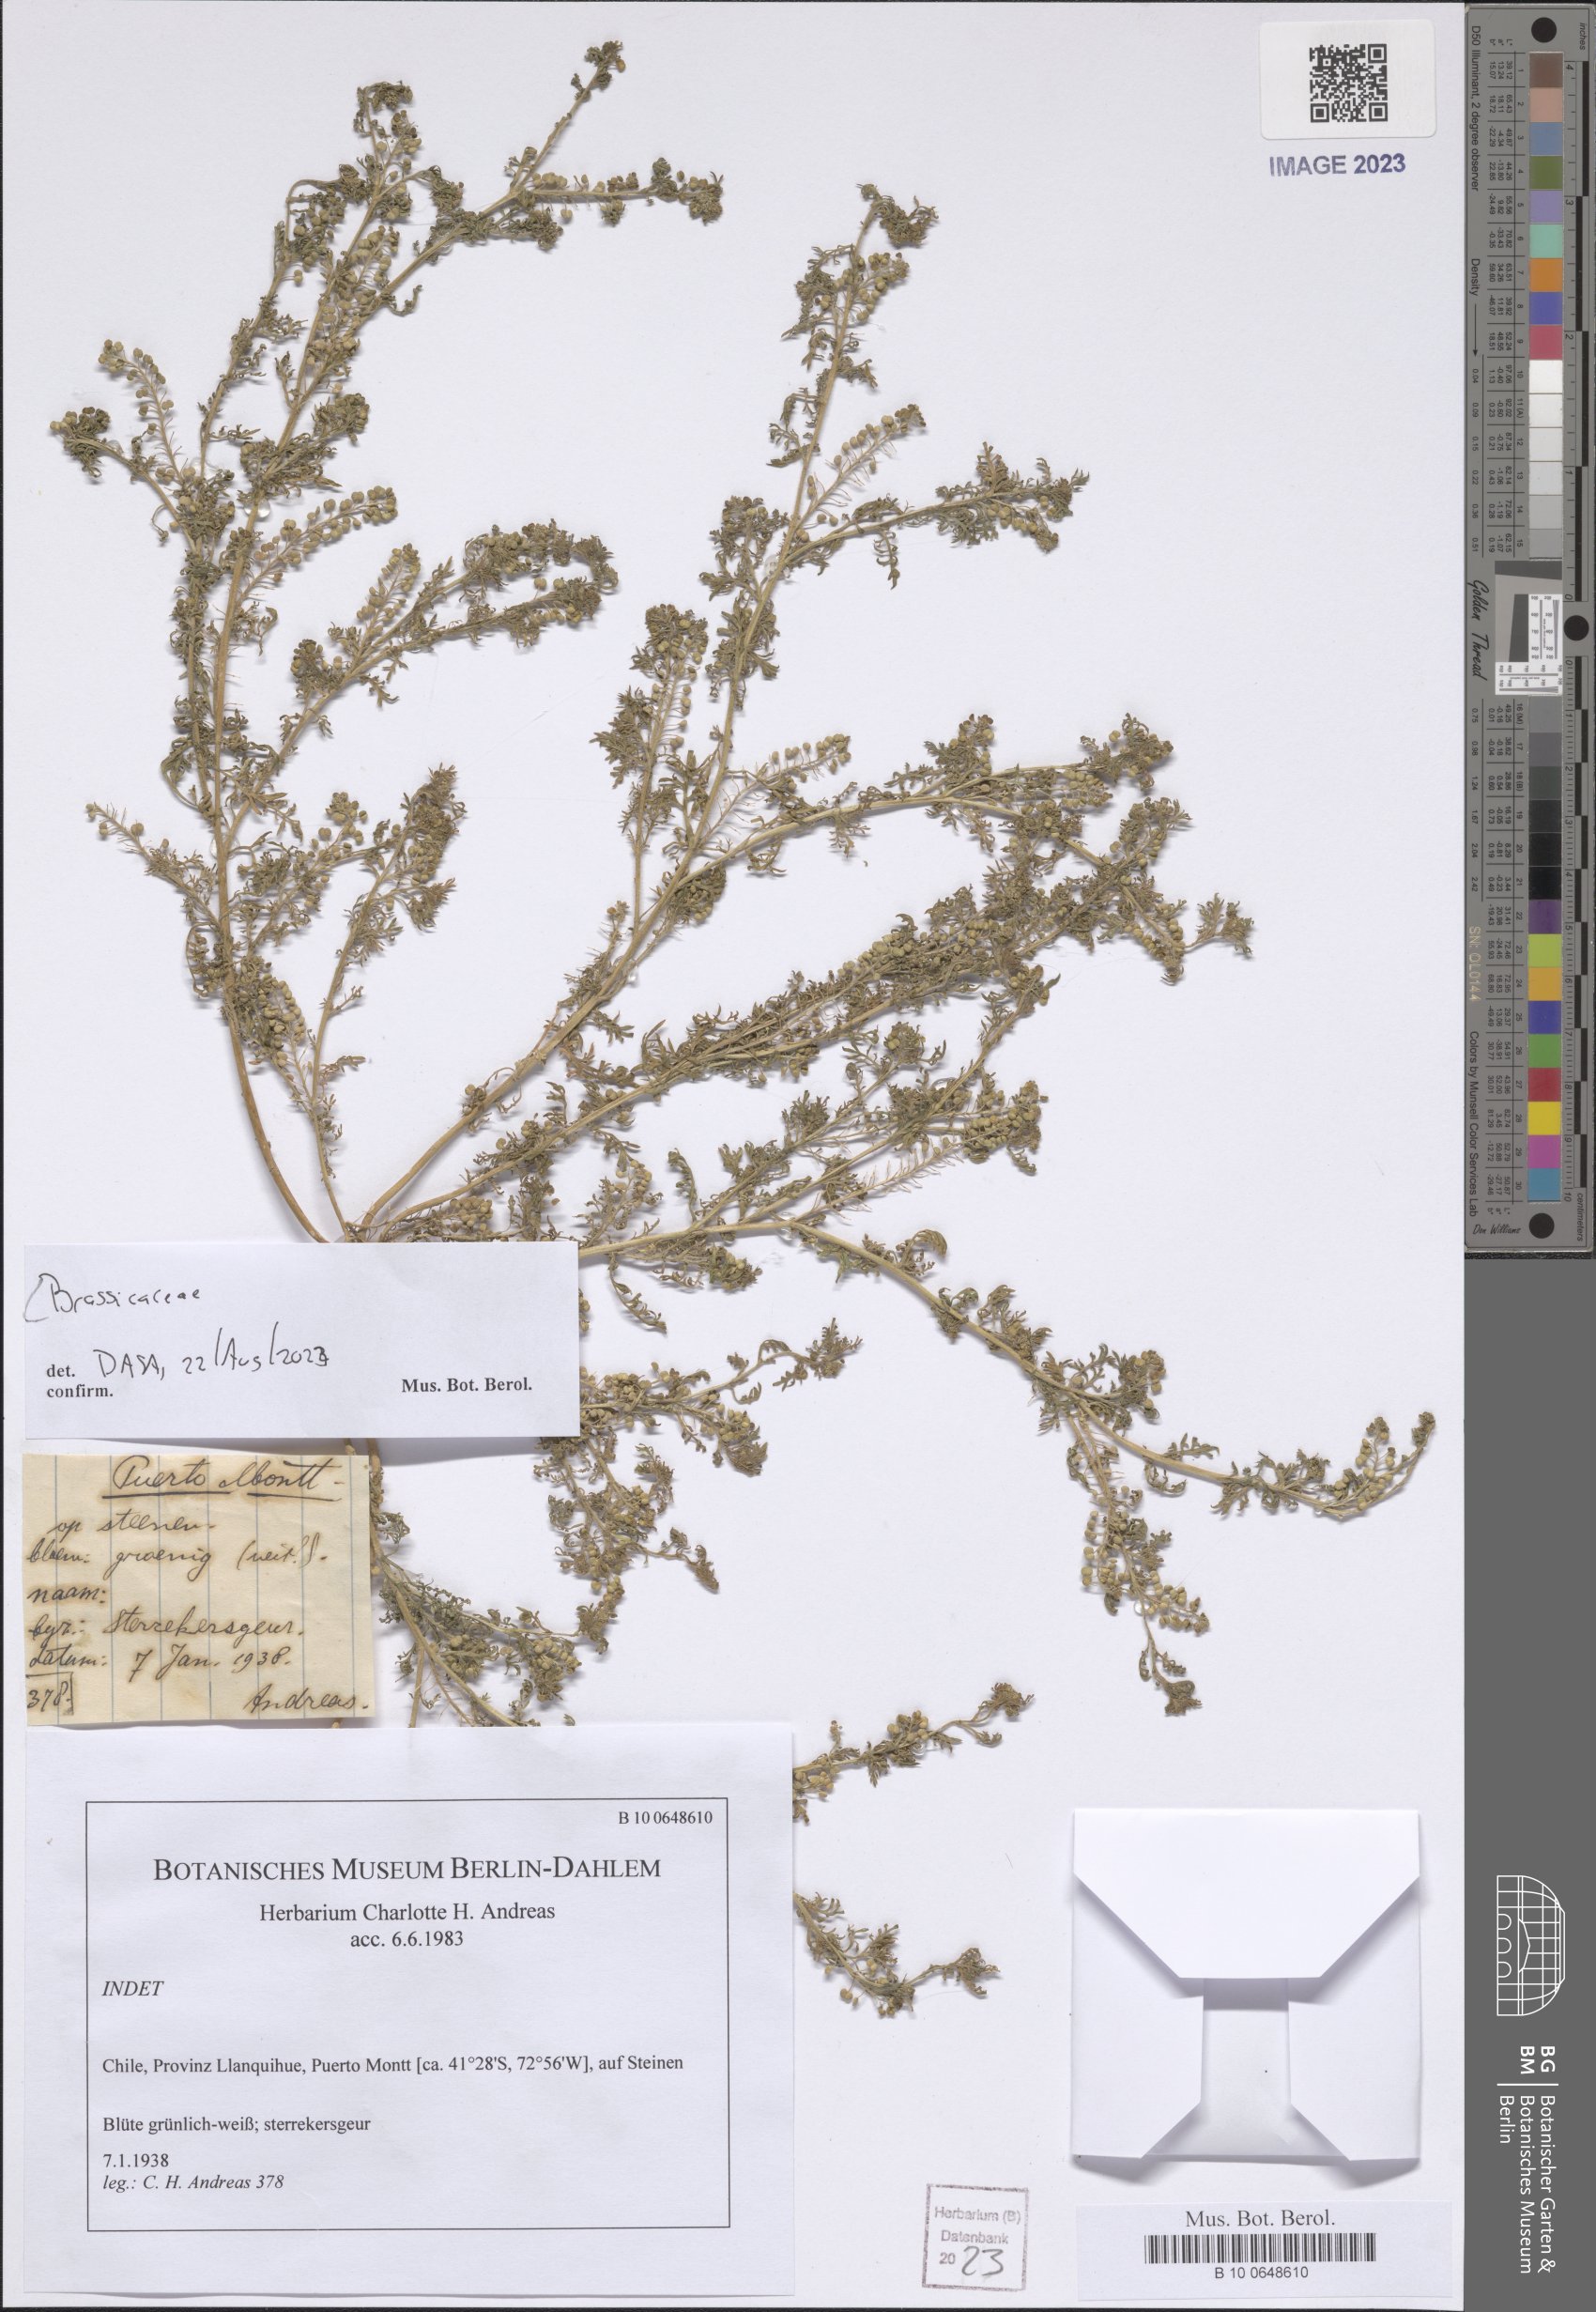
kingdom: Plantae
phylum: Tracheophyta
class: Magnoliopsida
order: Brassicales
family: Brassicaceae
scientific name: Brassicaceae
